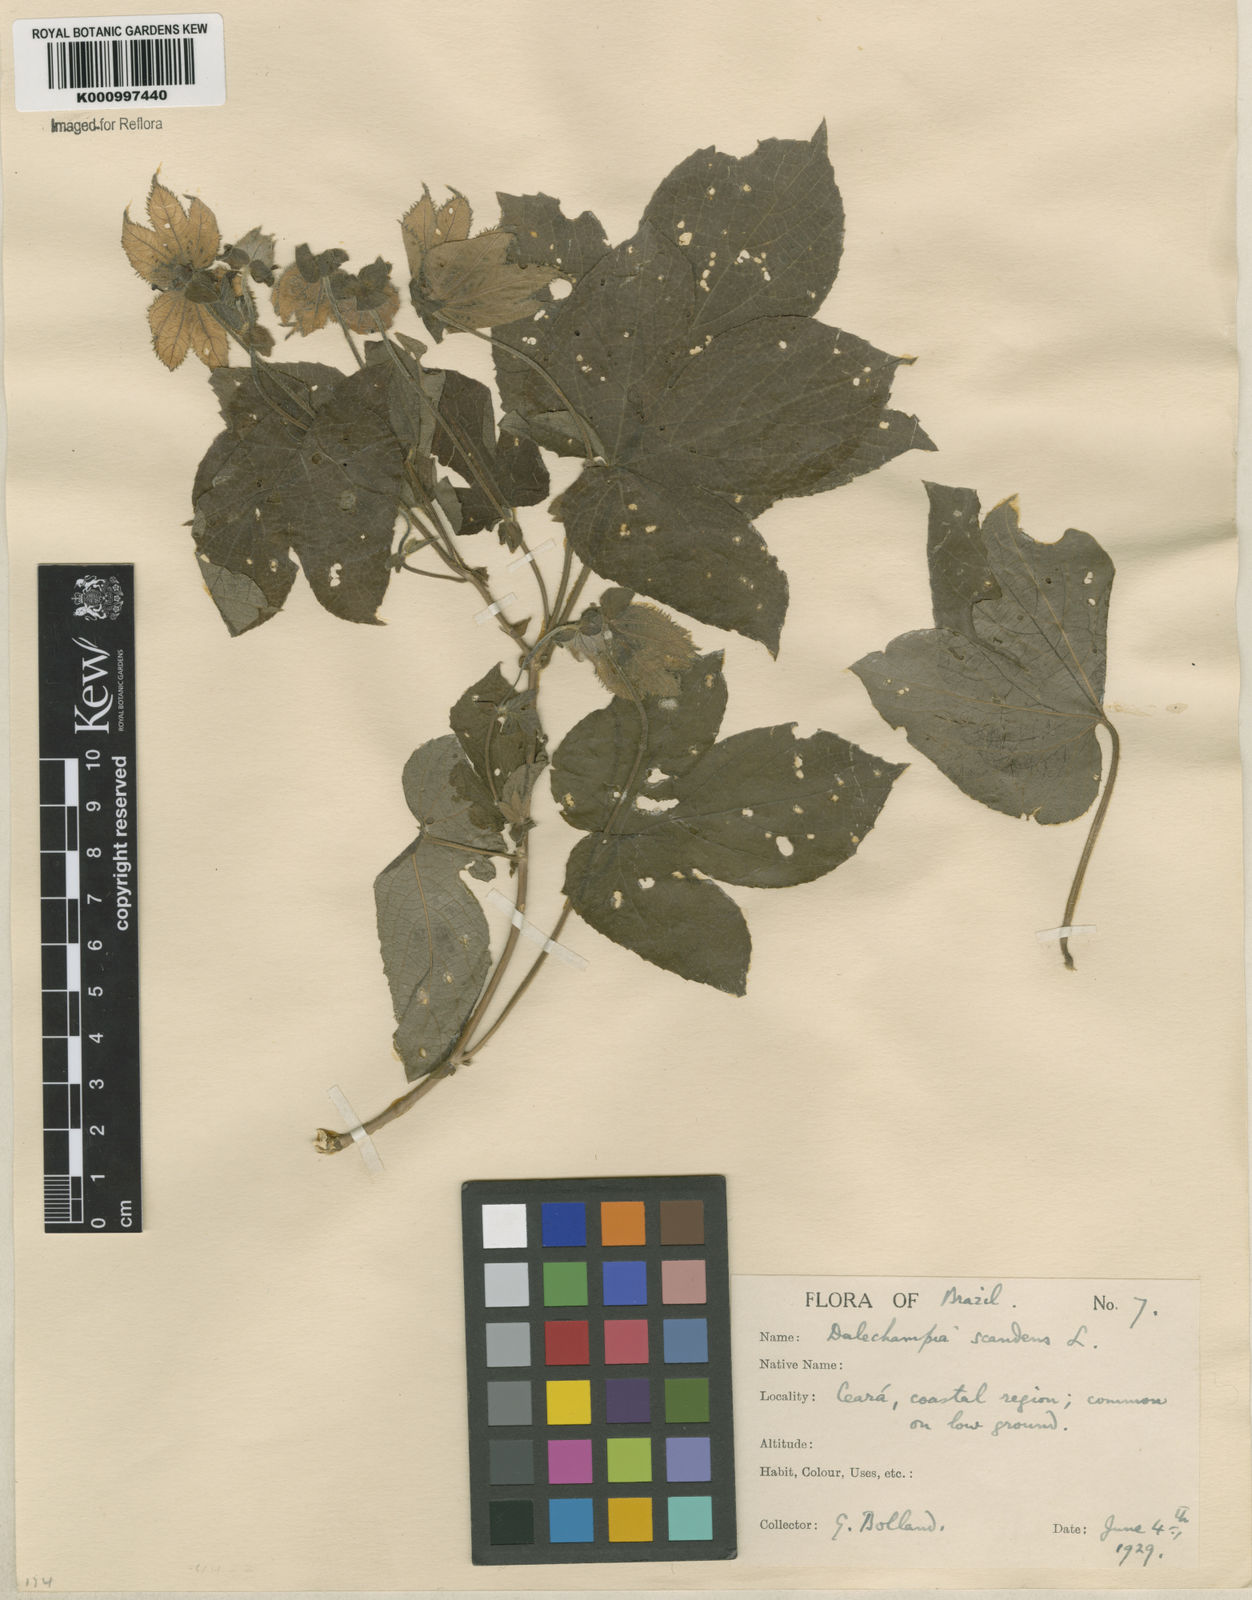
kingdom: Plantae
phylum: Tracheophyta
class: Magnoliopsida
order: Malpighiales
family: Euphorbiaceae
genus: Dalechampia
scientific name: Dalechampia scandens
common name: Spurgecreeper
